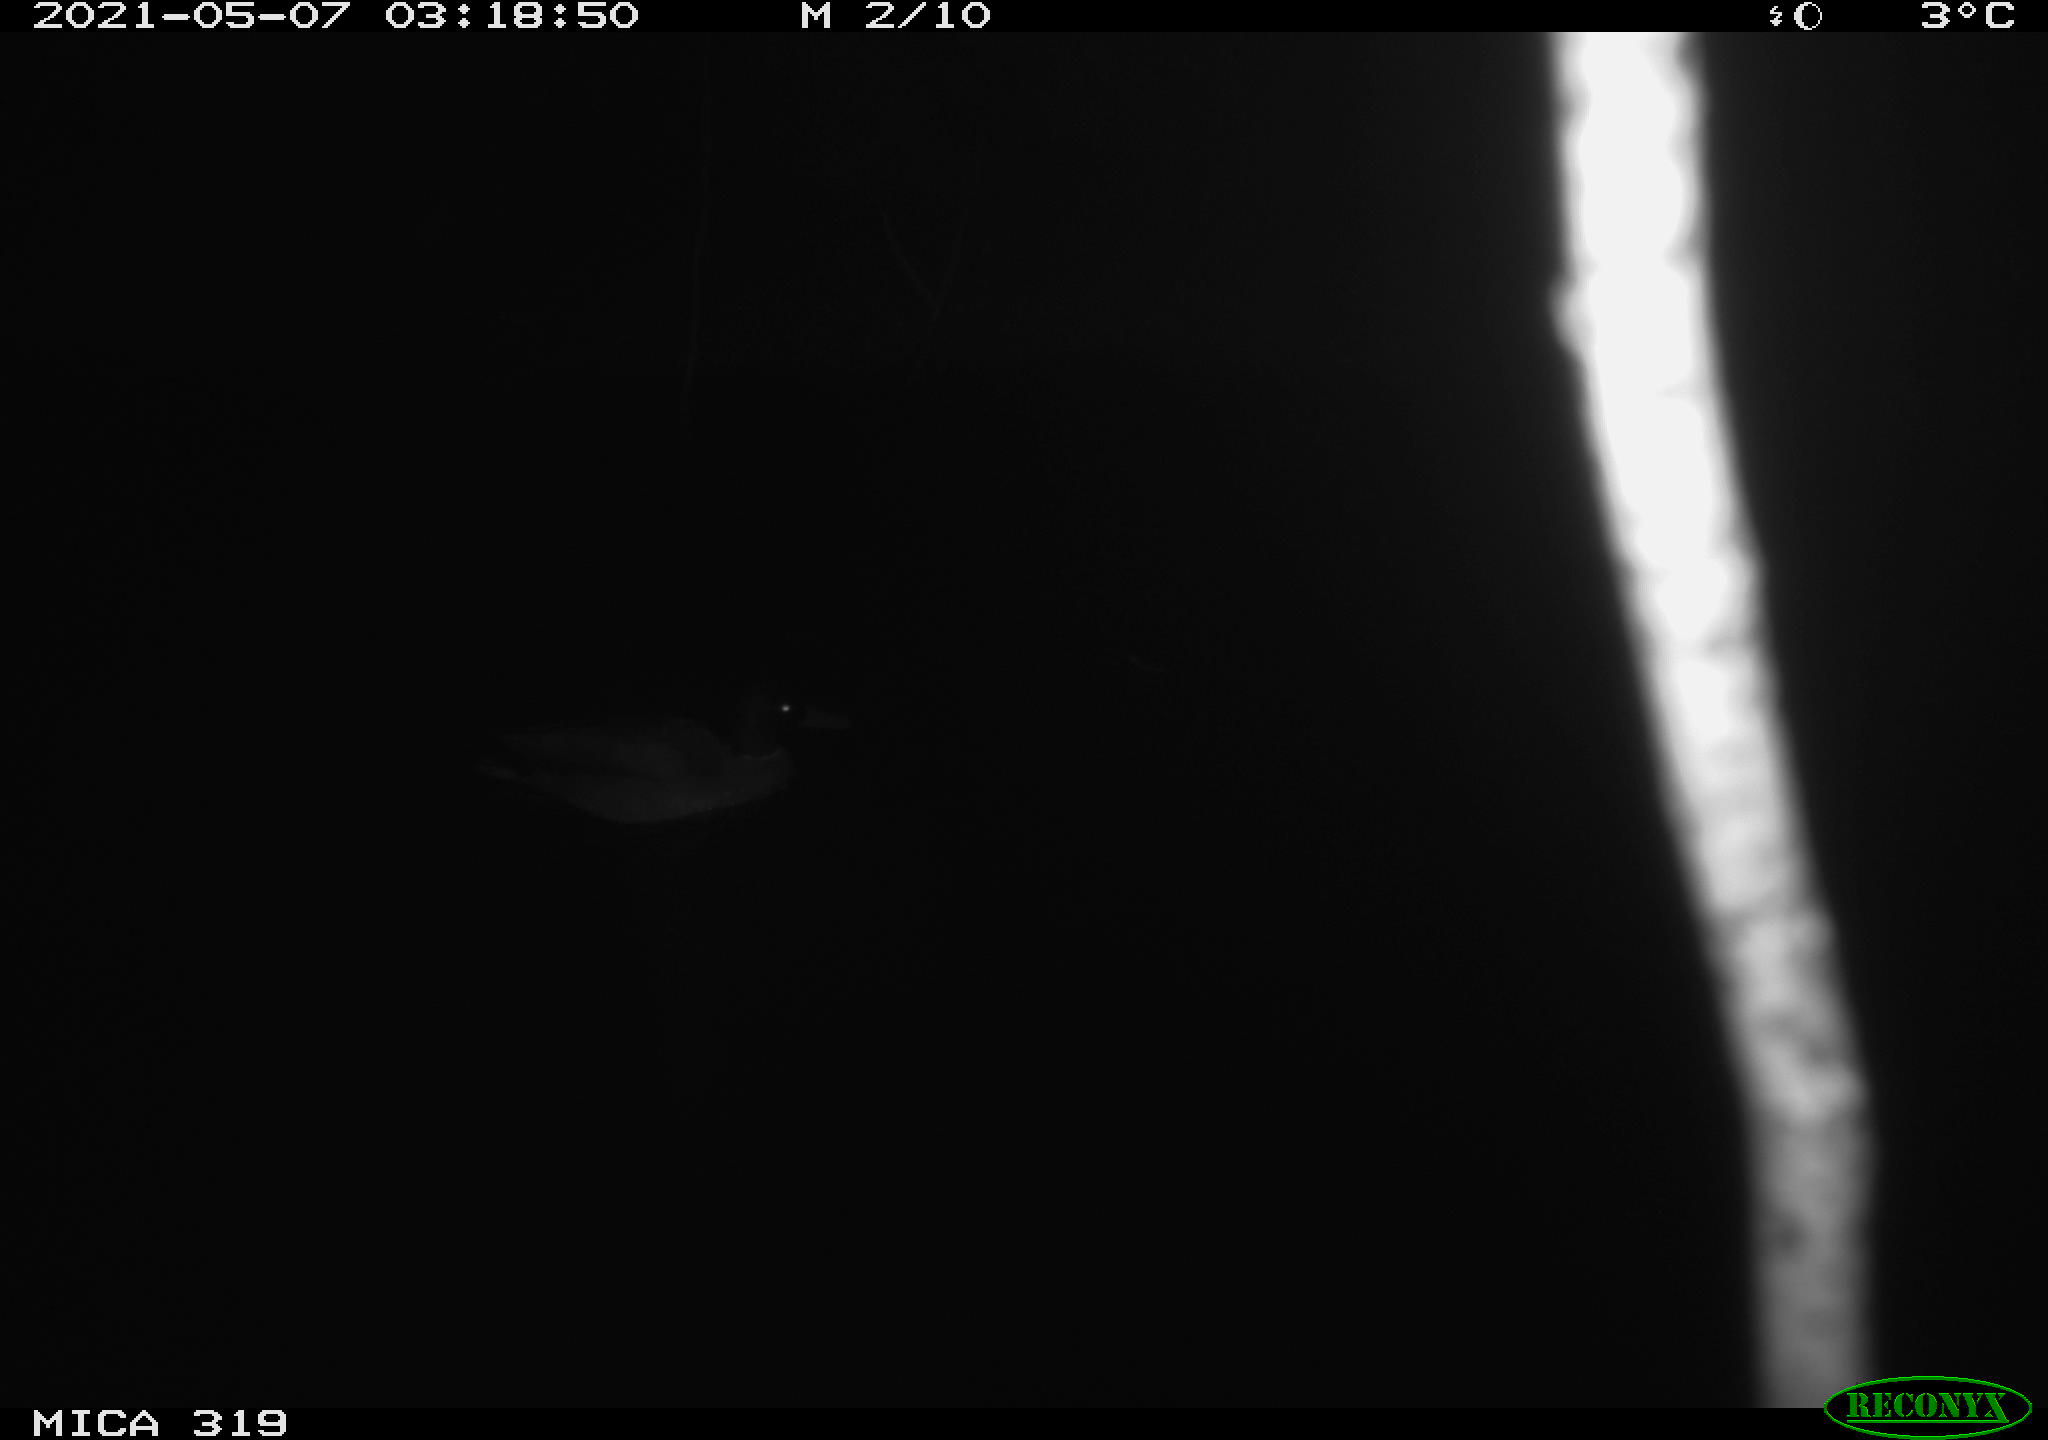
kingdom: Animalia
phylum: Chordata
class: Aves
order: Anseriformes
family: Anatidae
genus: Anas
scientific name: Anas platyrhynchos
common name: Mallard
